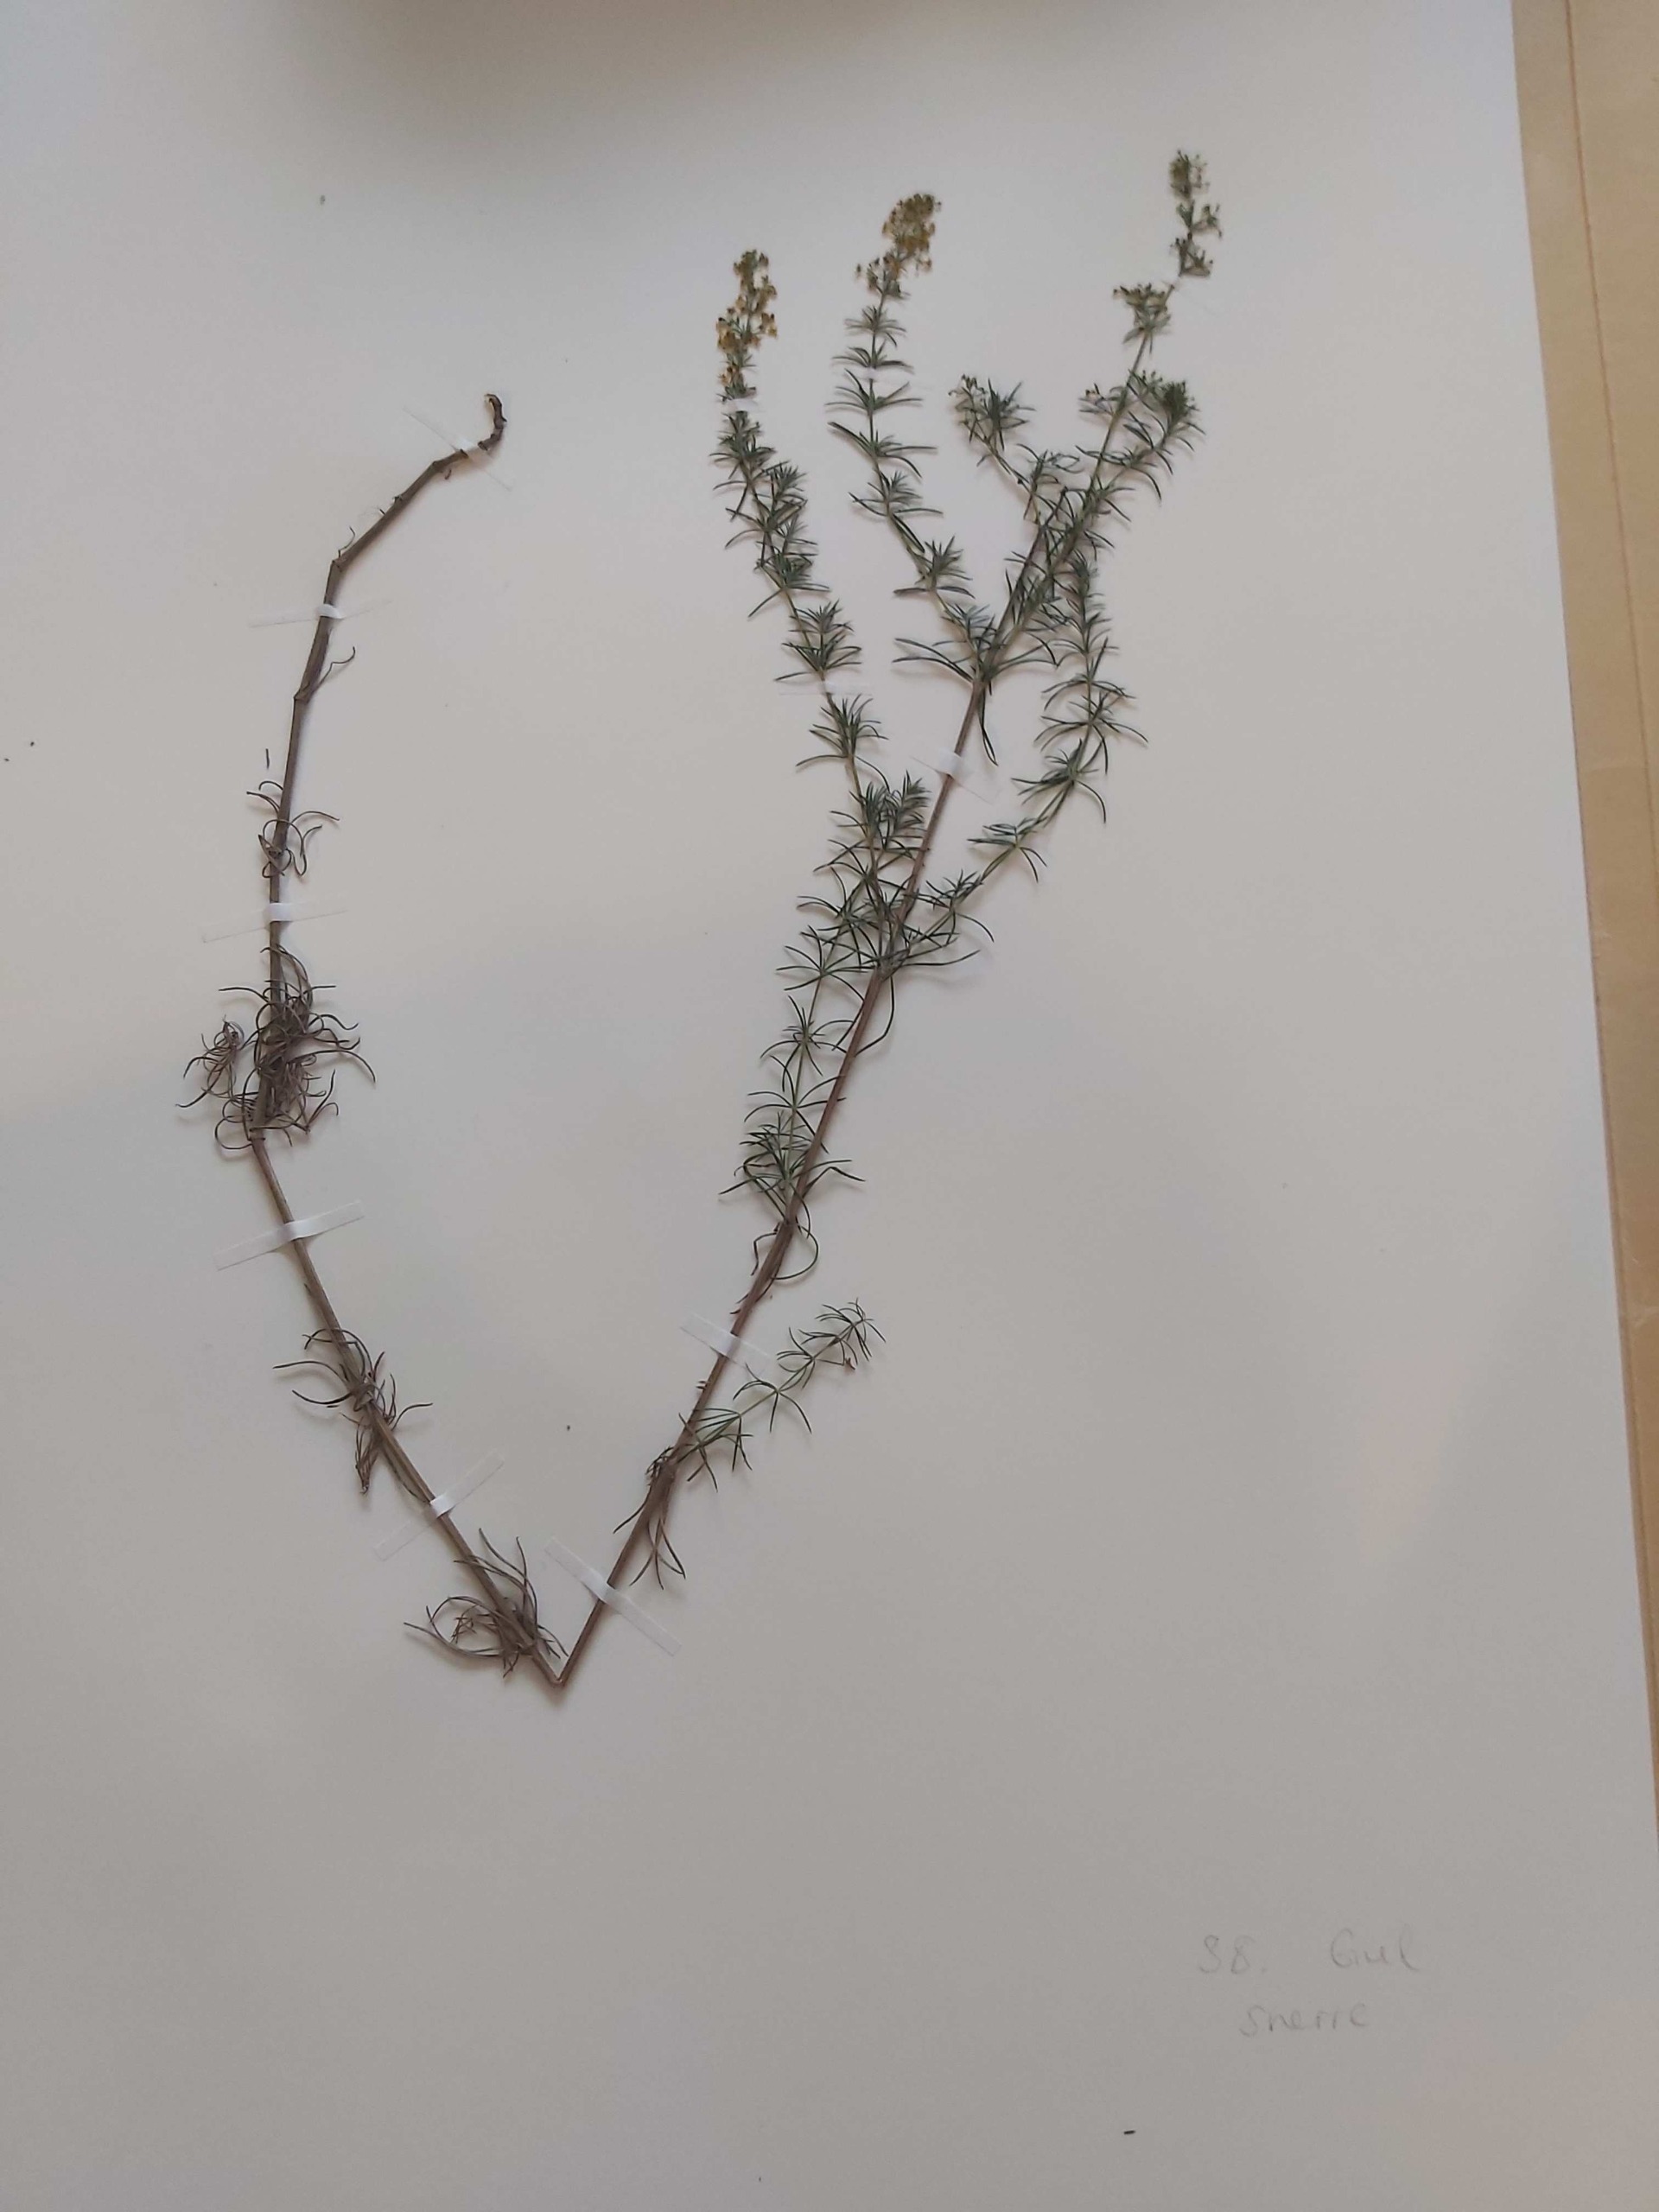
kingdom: Plantae
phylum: Tracheophyta
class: Magnoliopsida
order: Gentianales
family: Rubiaceae
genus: Galium
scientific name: Galium verum
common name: Gul snerre
